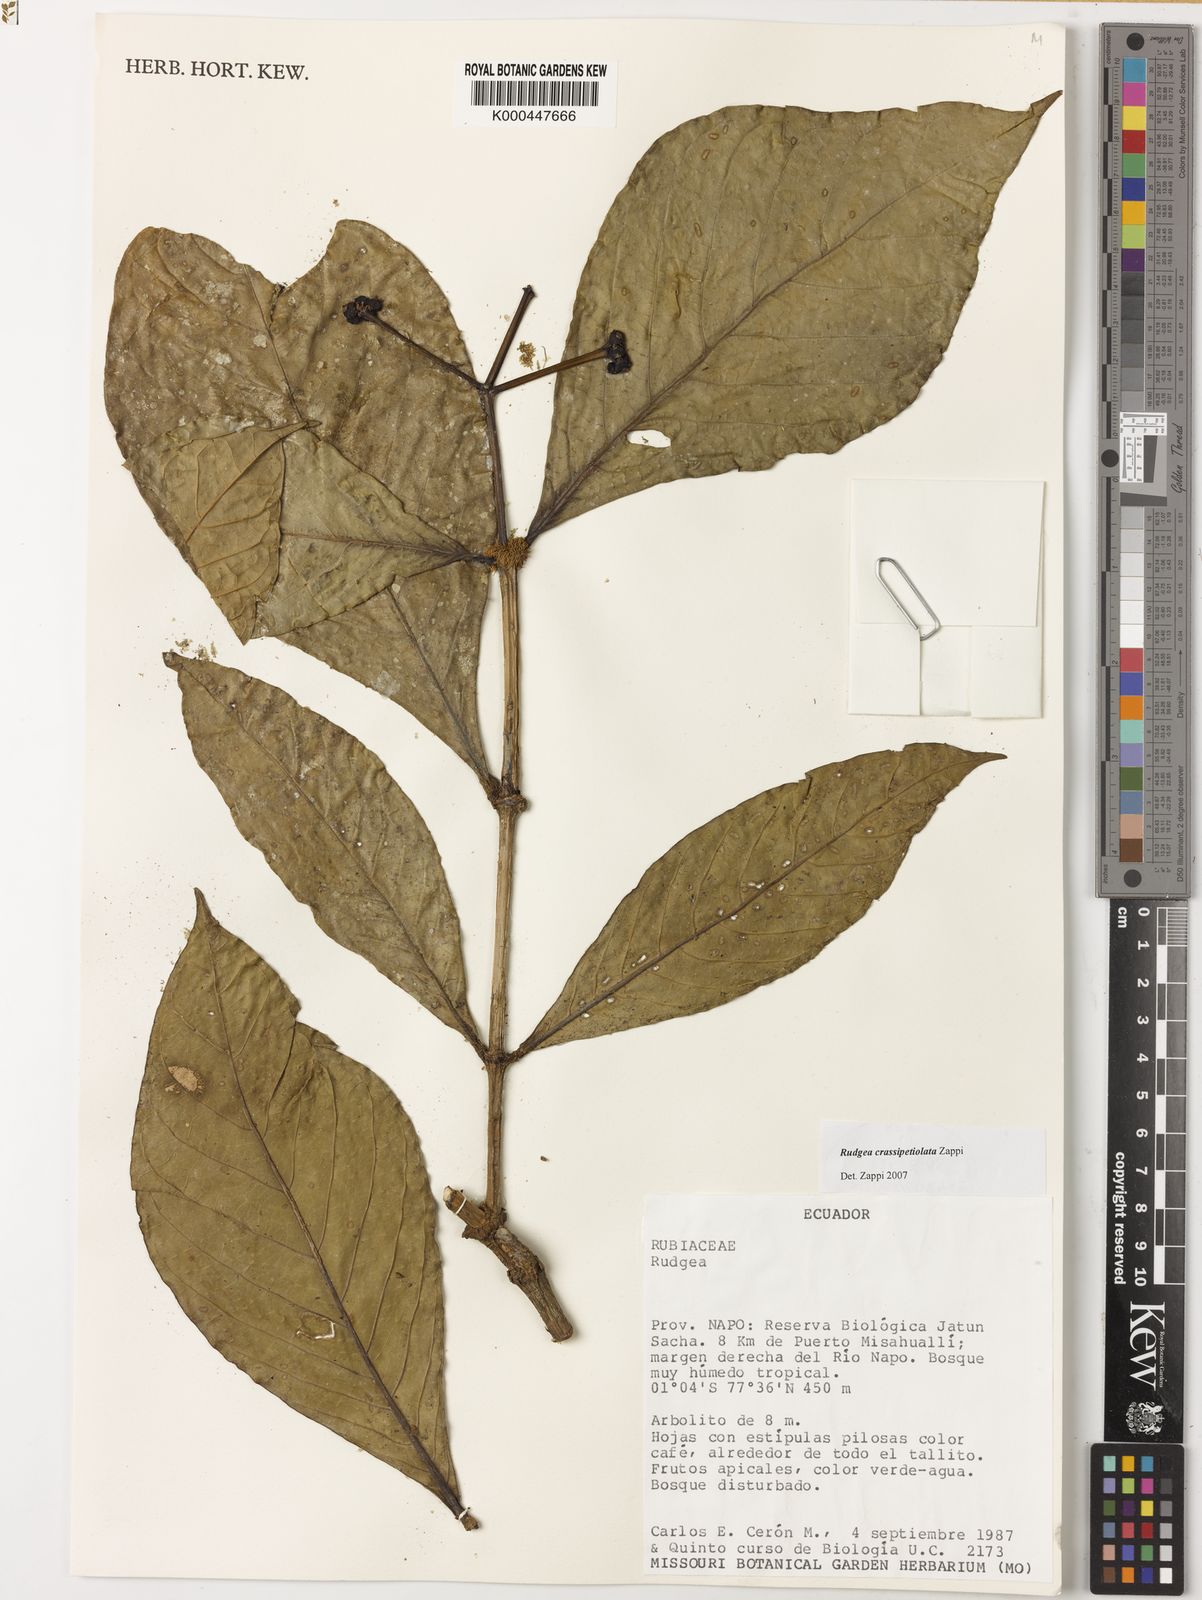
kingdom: Plantae
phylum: Tracheophyta
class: Magnoliopsida
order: Gentianales
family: Rubiaceae
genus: Rudgea
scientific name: Rudgea crassipetiolata
